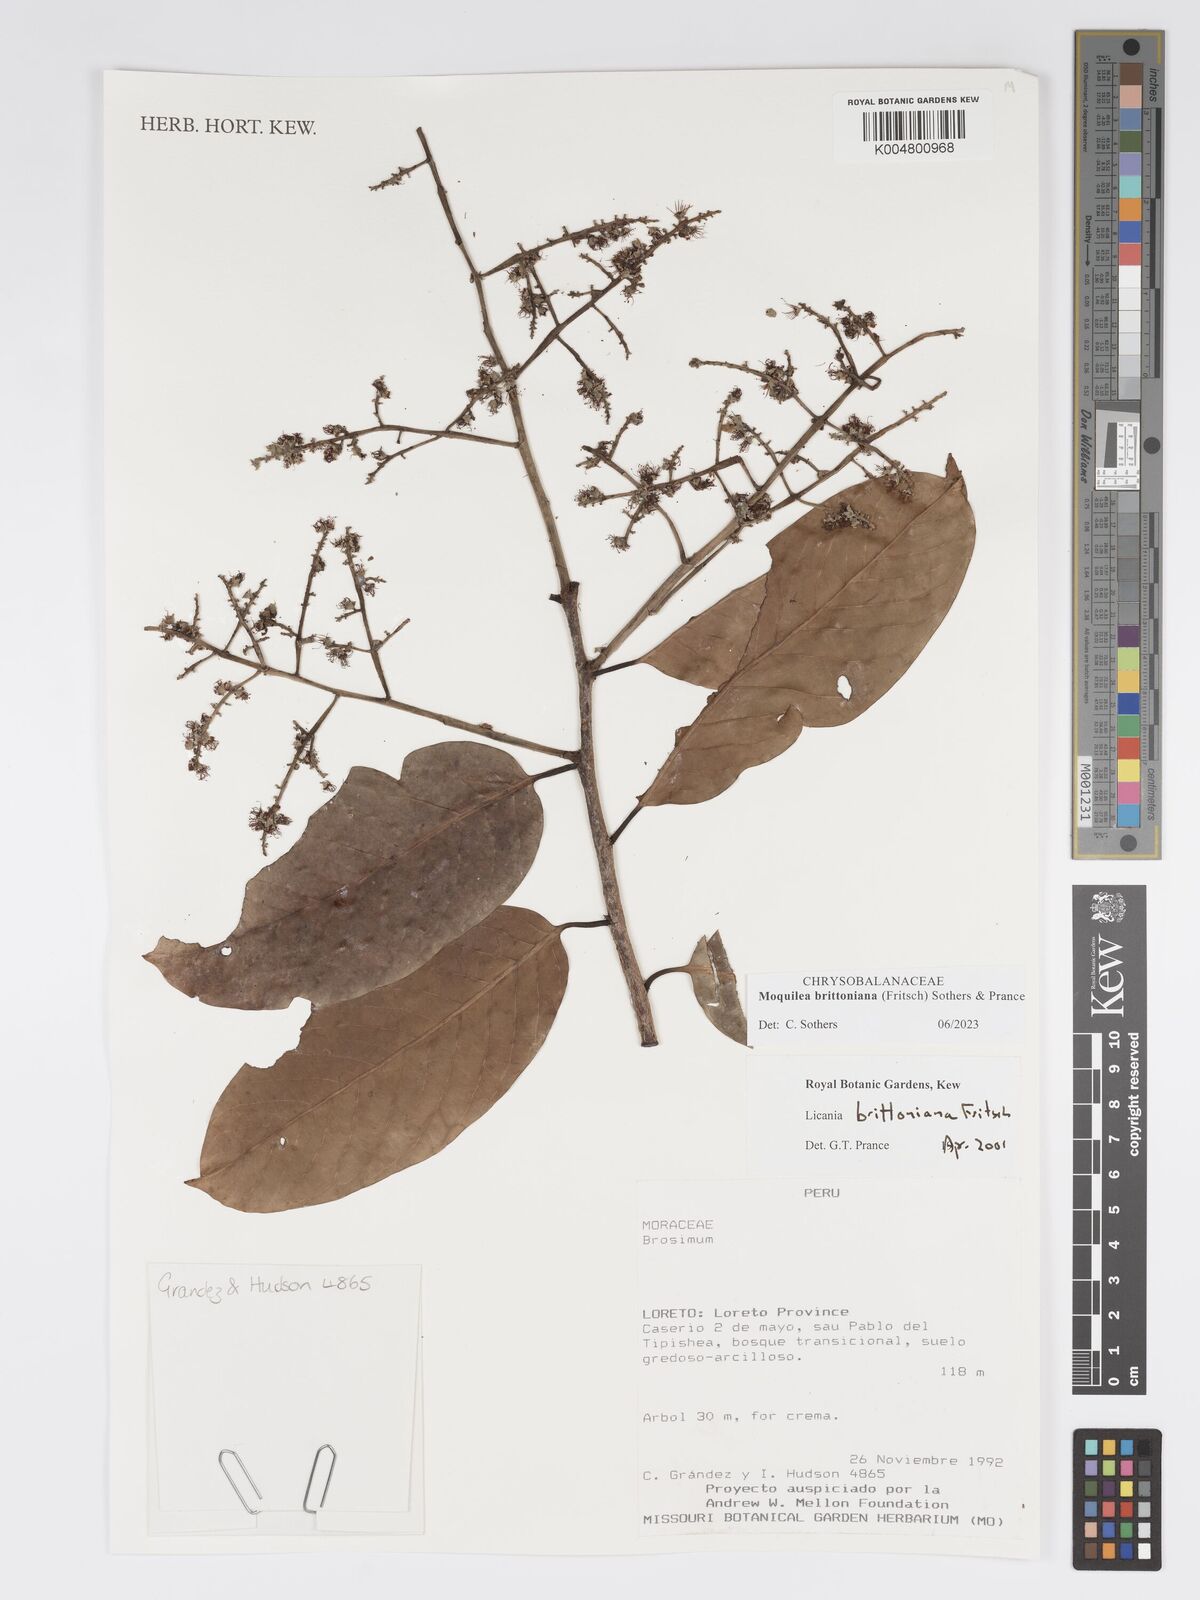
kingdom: Plantae
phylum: Tracheophyta
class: Magnoliopsida
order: Malpighiales
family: Chrysobalanaceae
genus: Moquilea
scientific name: Moquilea brittoniana
